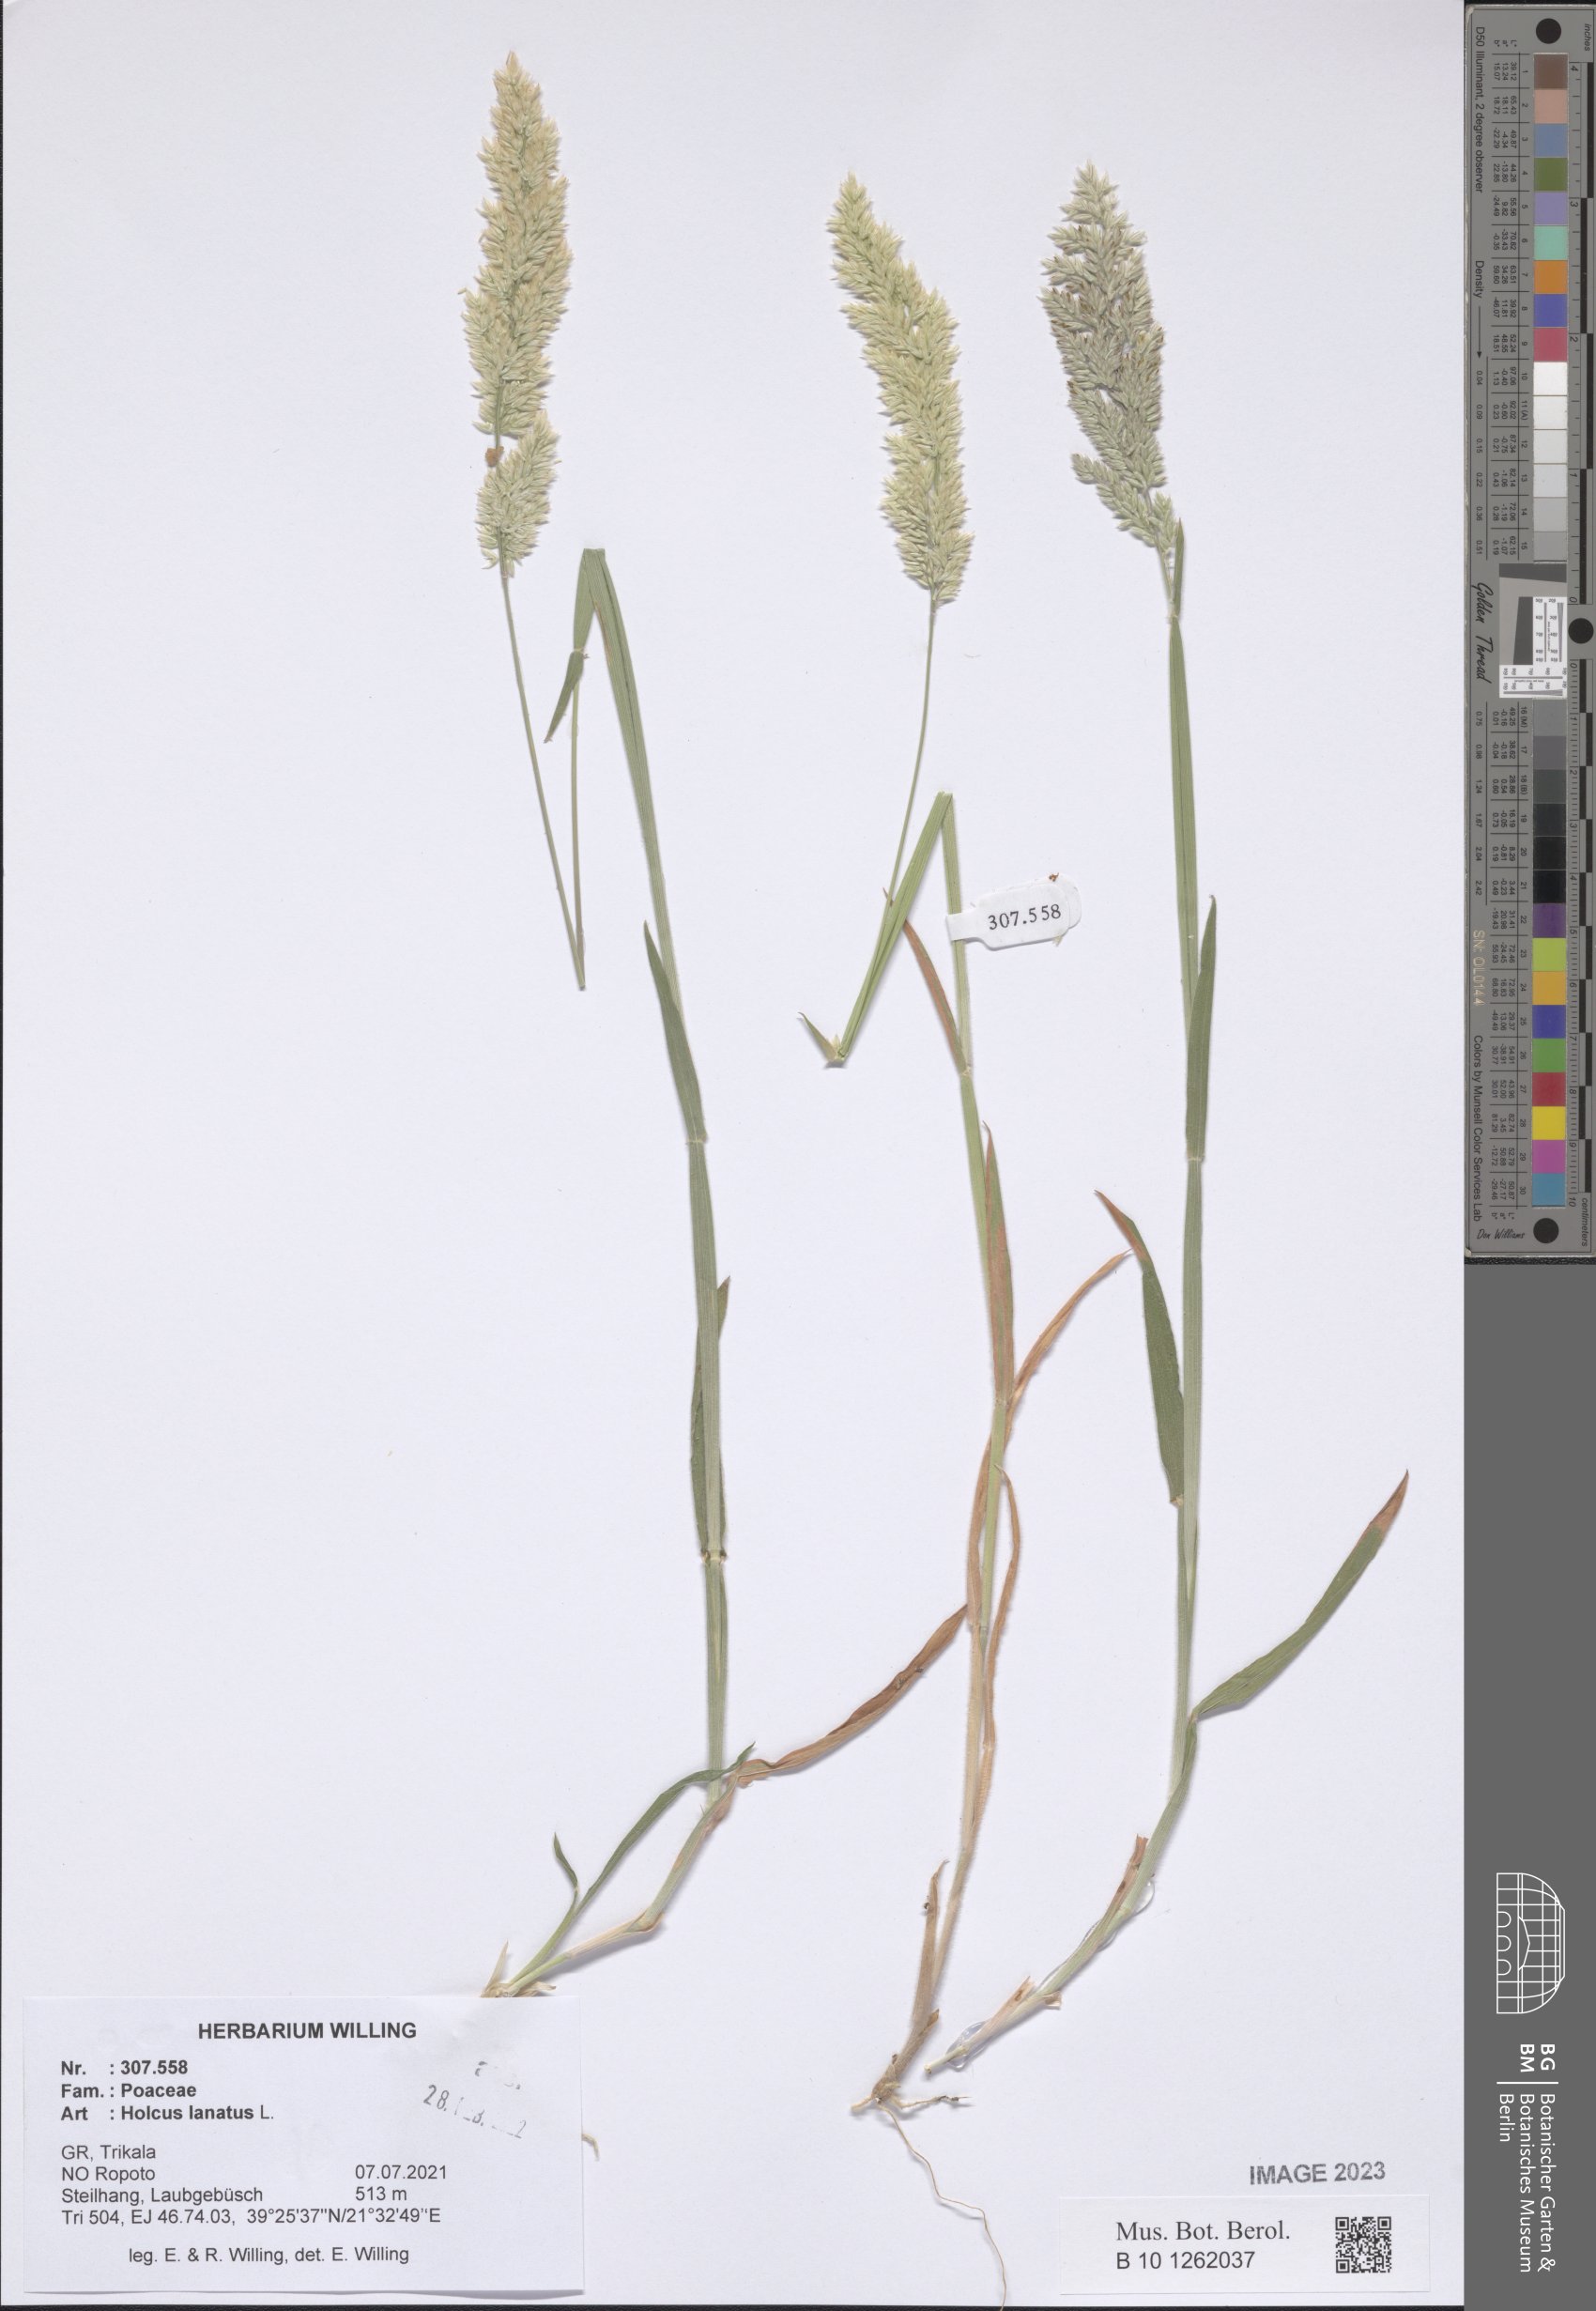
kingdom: Plantae
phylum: Tracheophyta
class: Liliopsida
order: Poales
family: Poaceae
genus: Holcus
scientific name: Holcus lanatus
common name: Yorkshire-fog
